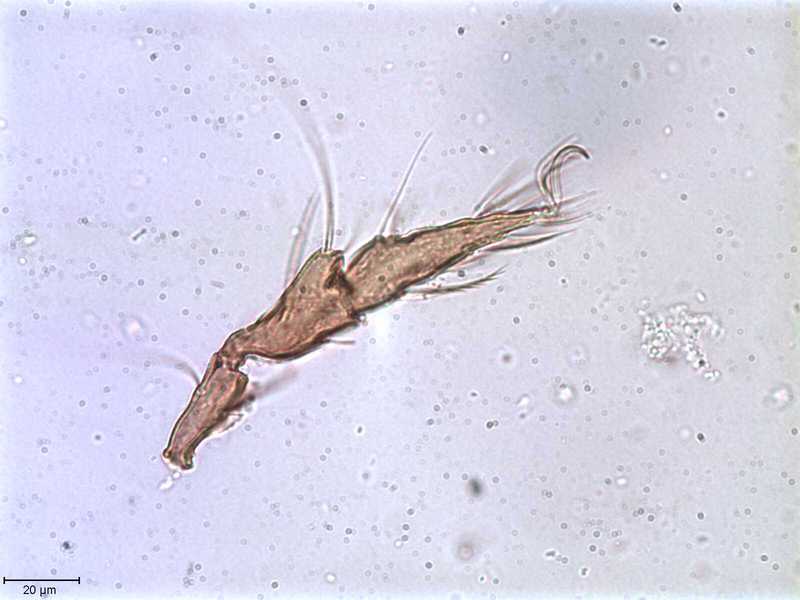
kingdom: Animalia
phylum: Arthropoda
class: Arachnida
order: Sarcoptiformes
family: Tegoribatidae
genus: Plakoribates
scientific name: Plakoribates multicuspidatus
